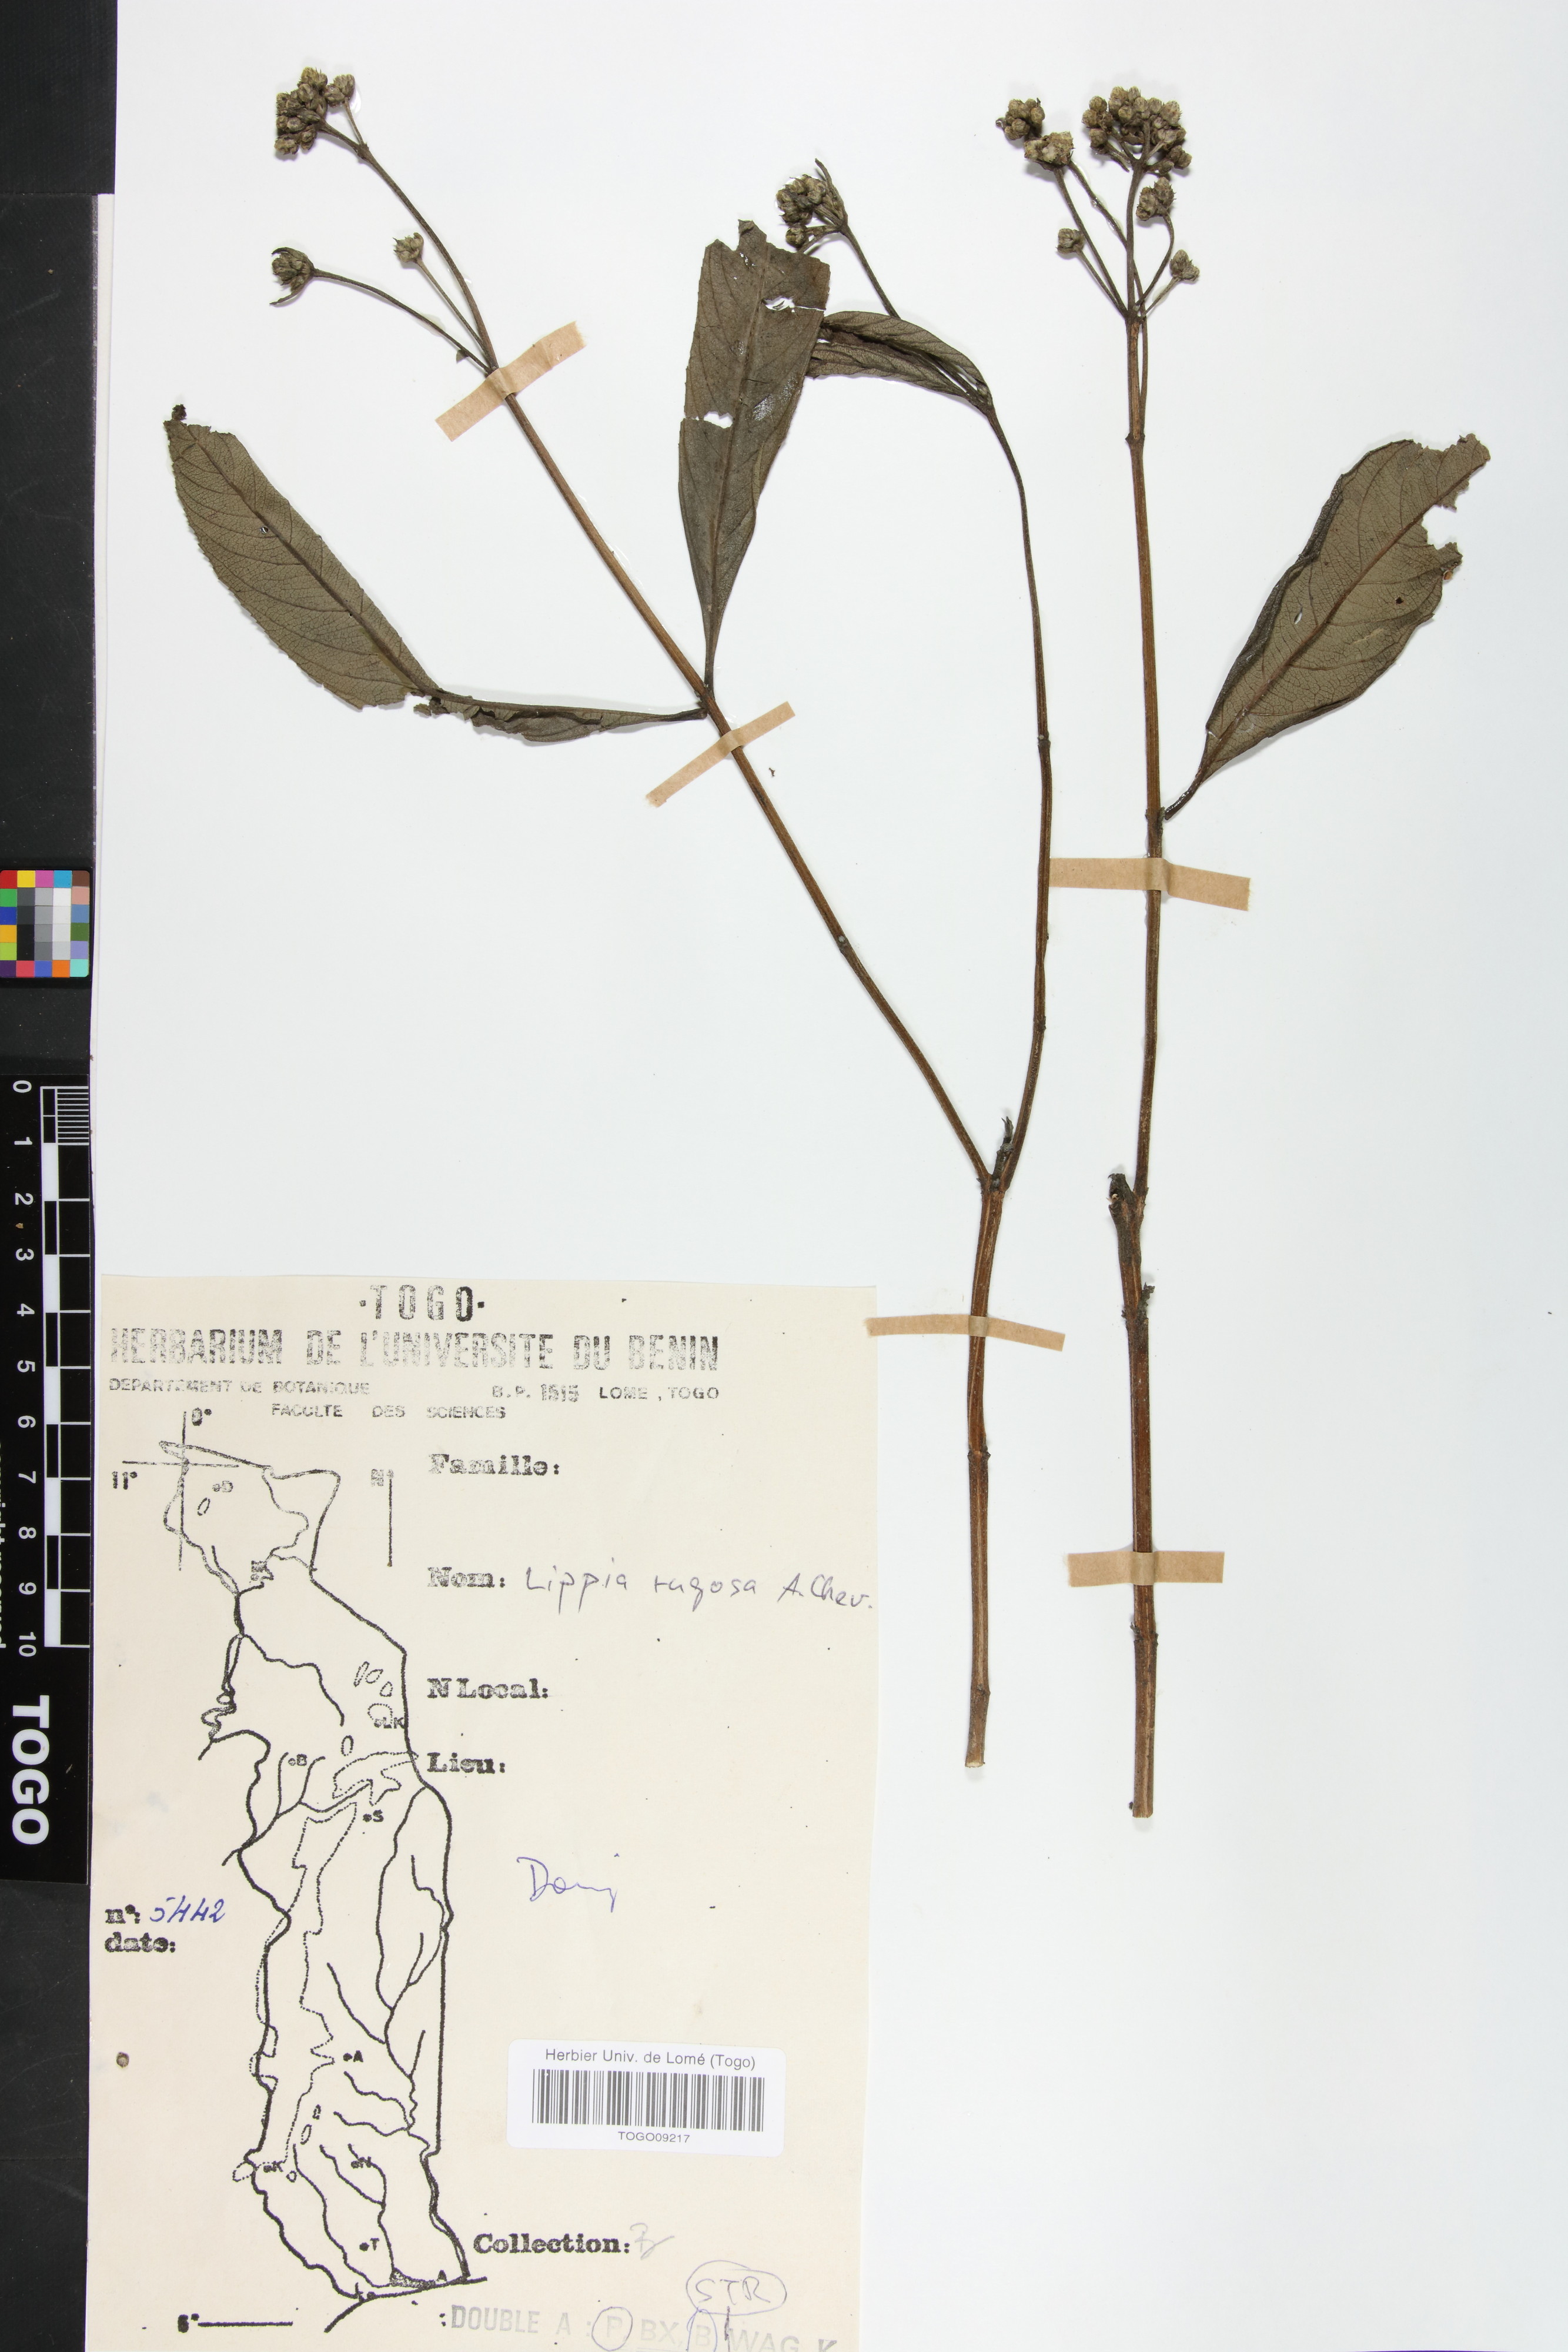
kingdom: Plantae
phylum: Tracheophyta
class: Magnoliopsida
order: Lamiales
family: Verbenaceae
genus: Lippia
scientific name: Lippia rugosa
